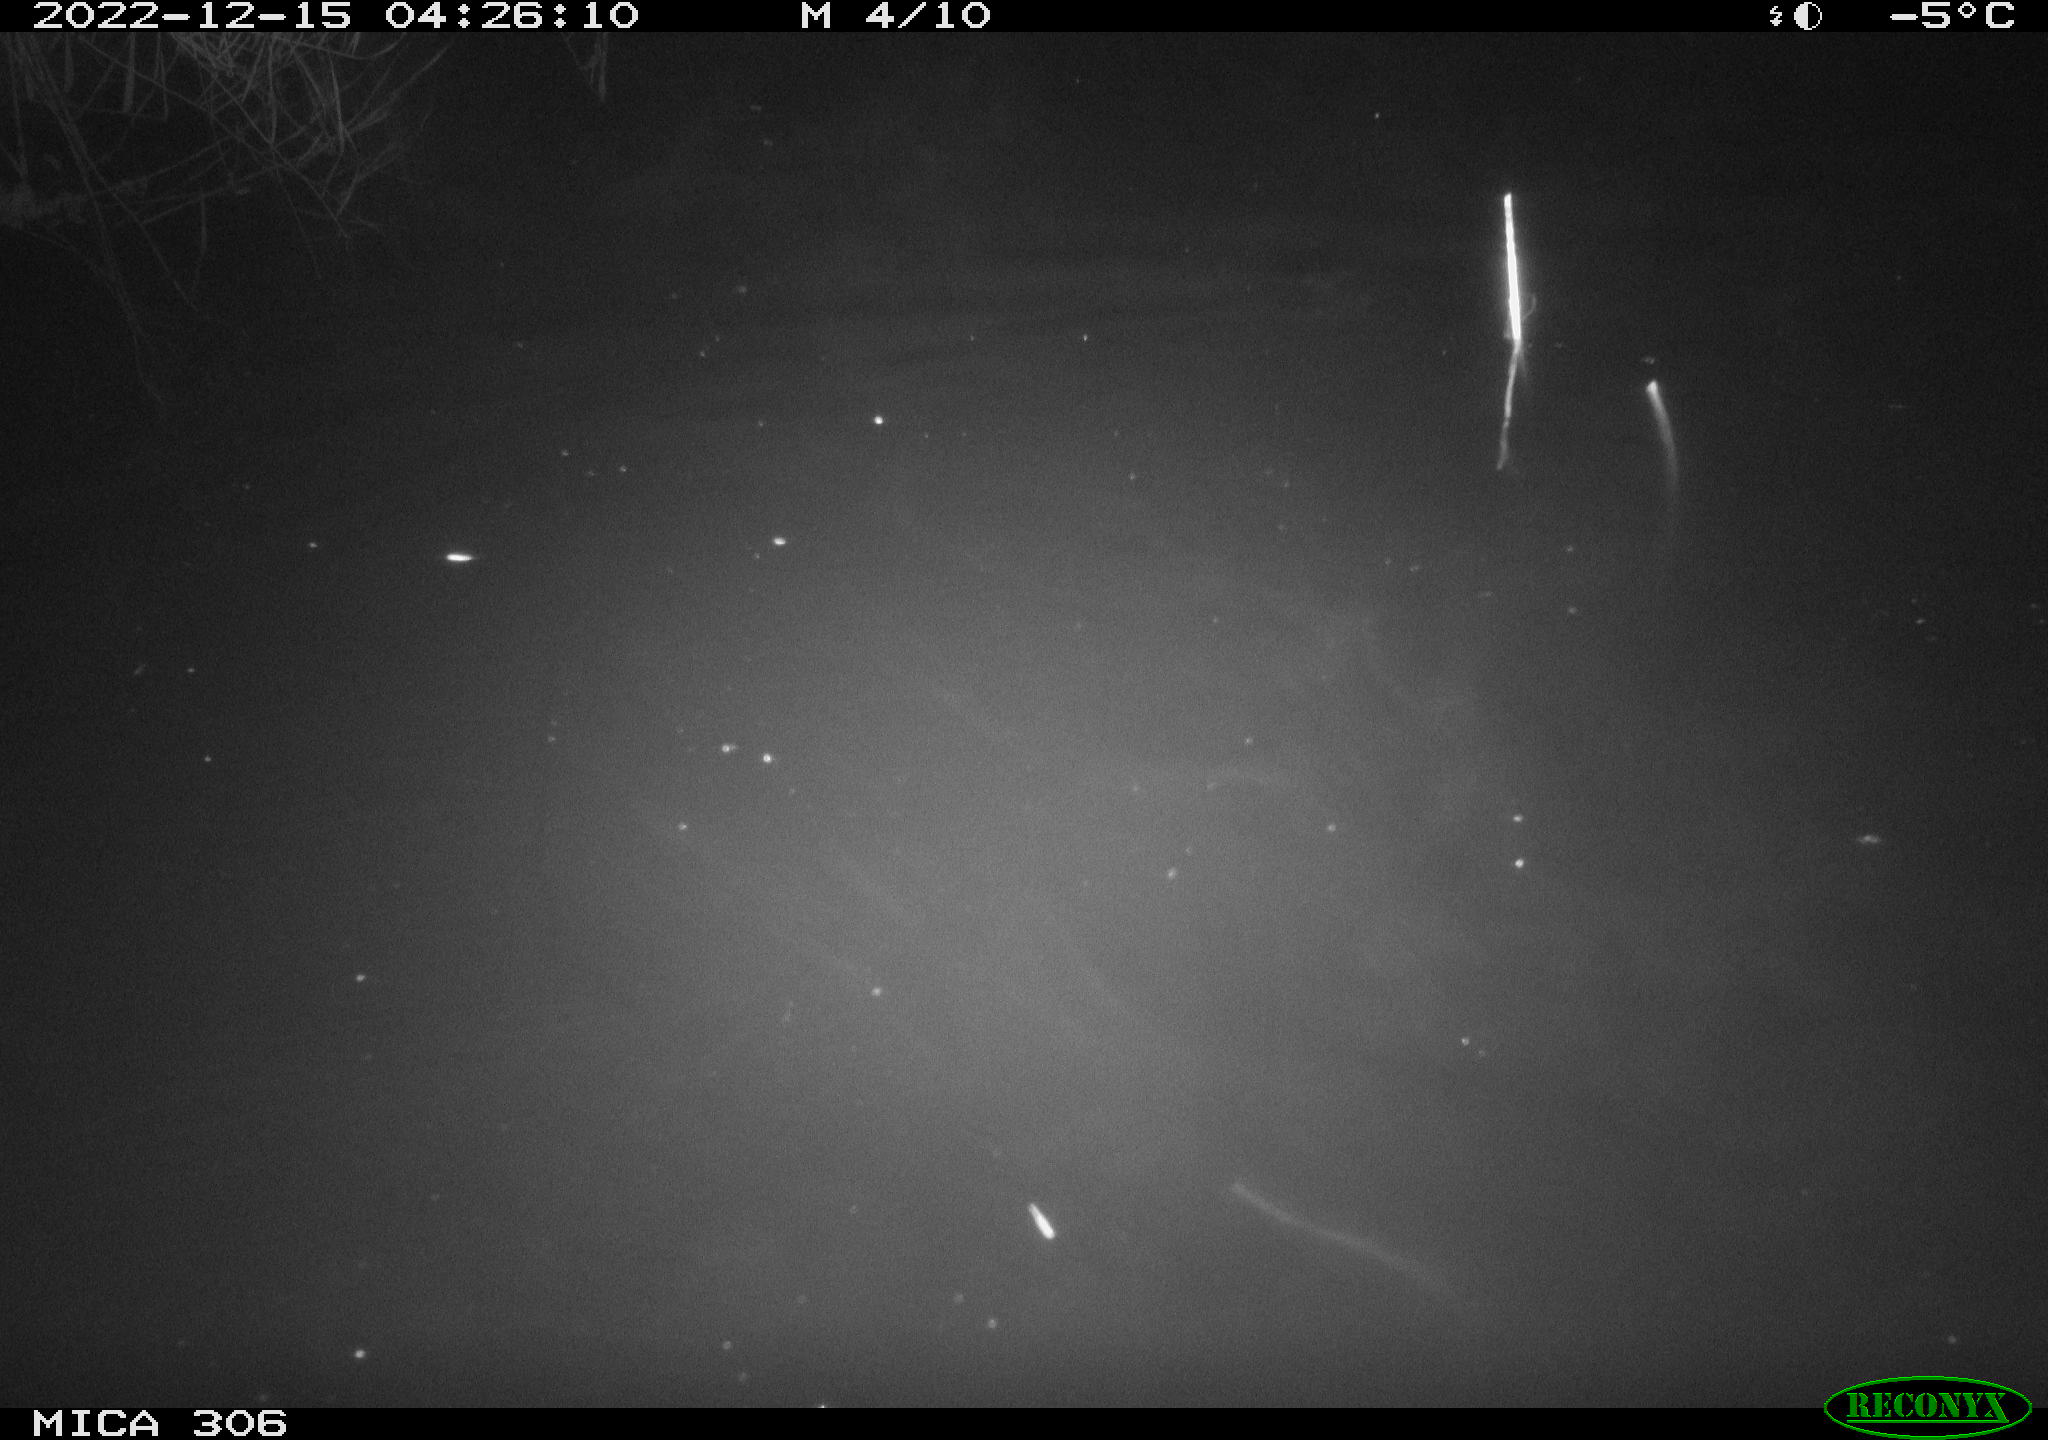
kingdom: Animalia
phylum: Chordata
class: Mammalia
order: Rodentia
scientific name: Rodentia
